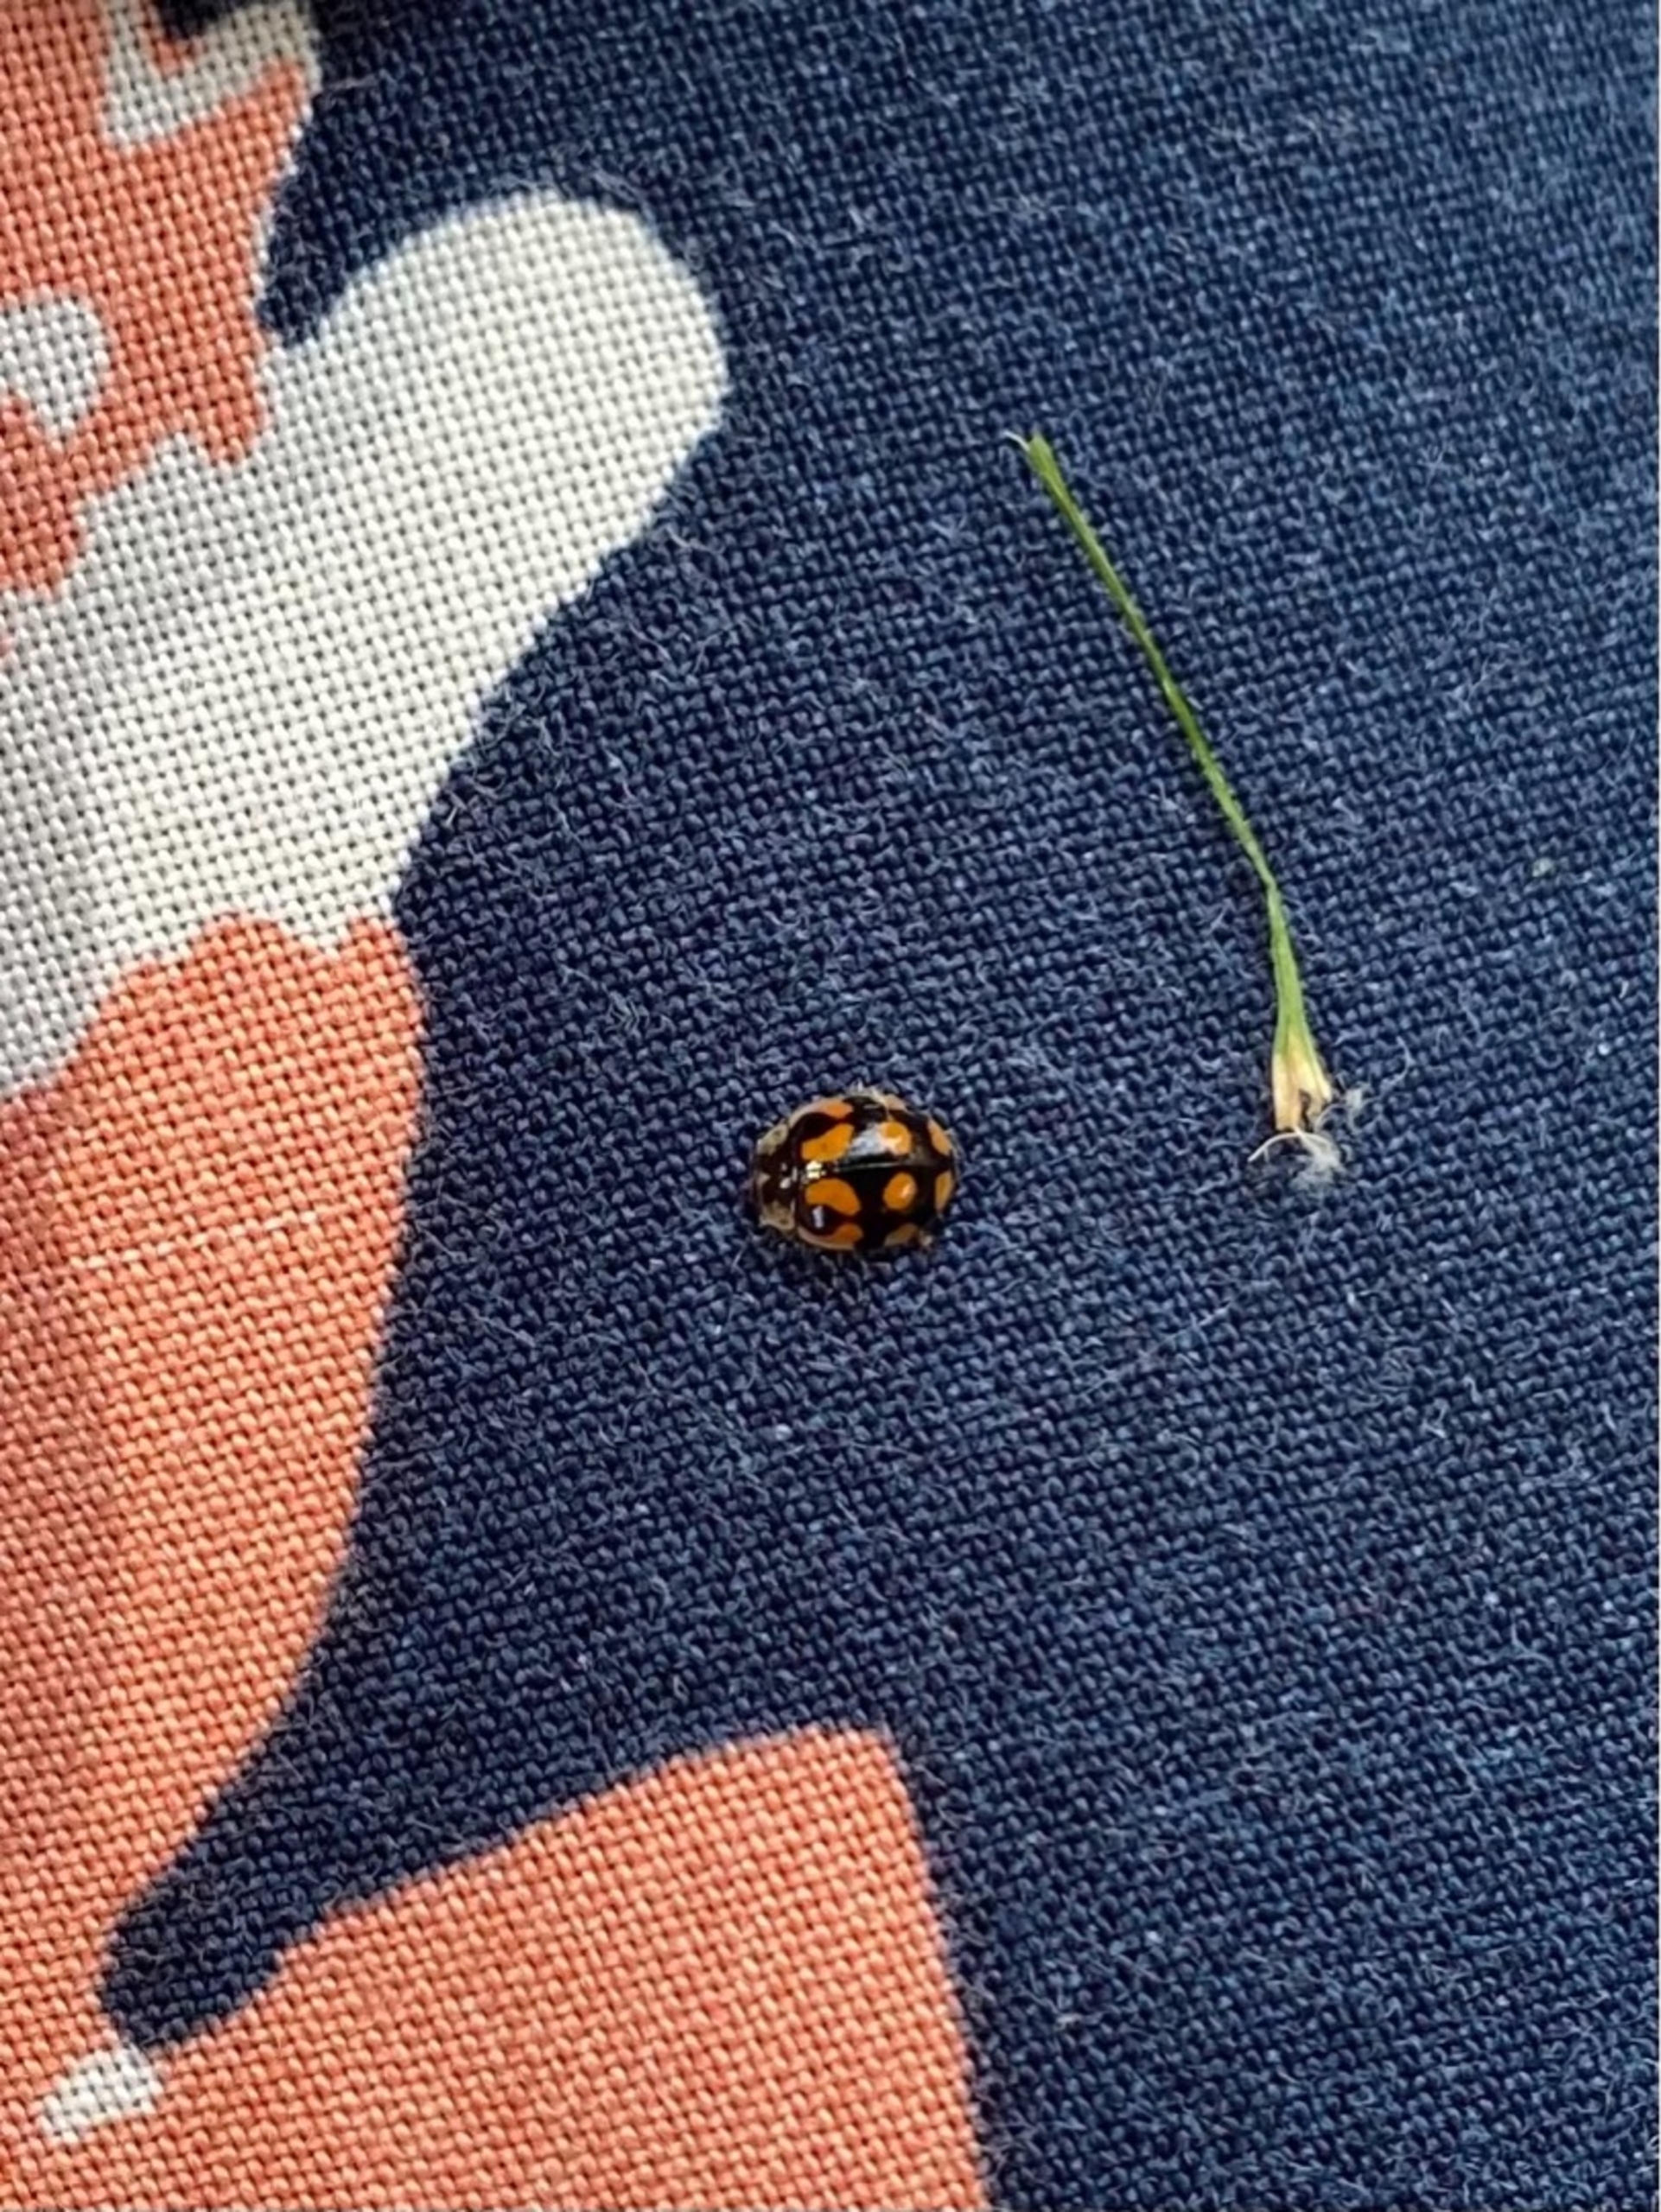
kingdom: Animalia
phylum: Arthropoda
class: Insecta
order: Coleoptera
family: Coccinellidae
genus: Adalia
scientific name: Adalia decempunctata
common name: Tiplettet mariehøne
